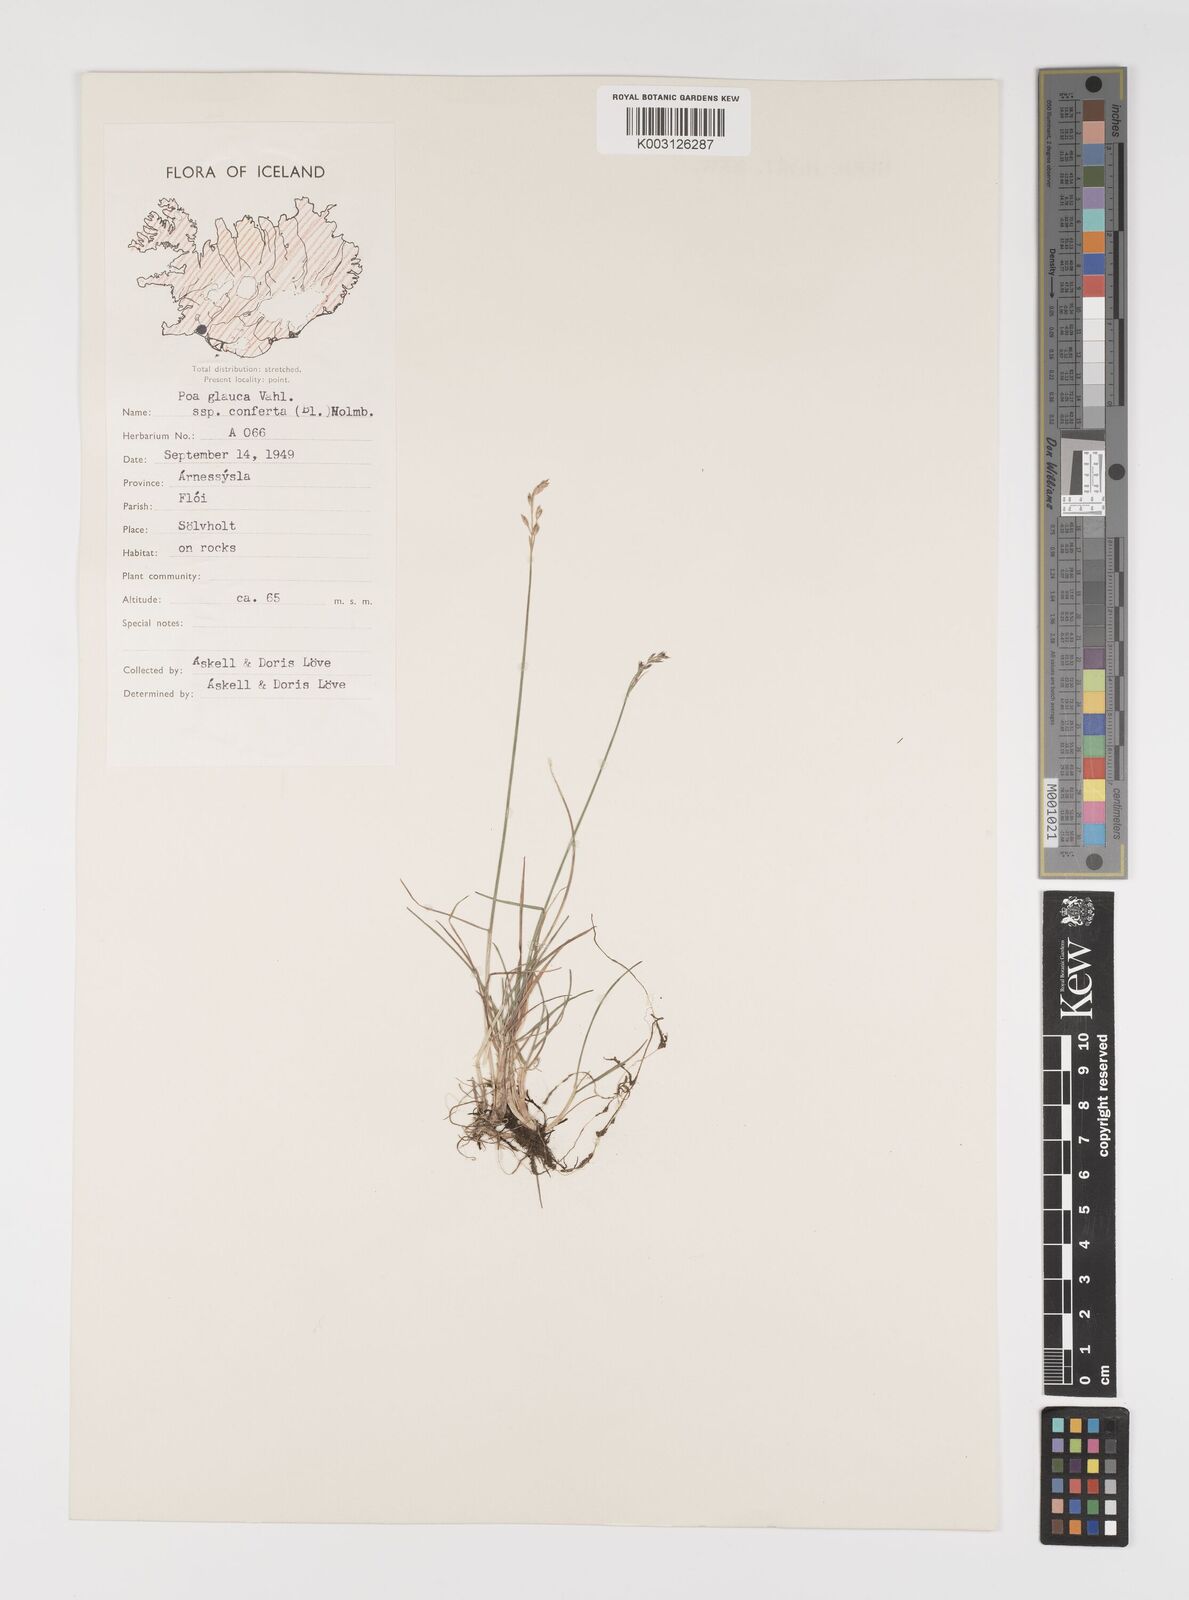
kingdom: Plantae
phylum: Tracheophyta
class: Liliopsida
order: Poales
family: Poaceae
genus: Poa
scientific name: Poa glauca
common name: Glaucous bluegrass
